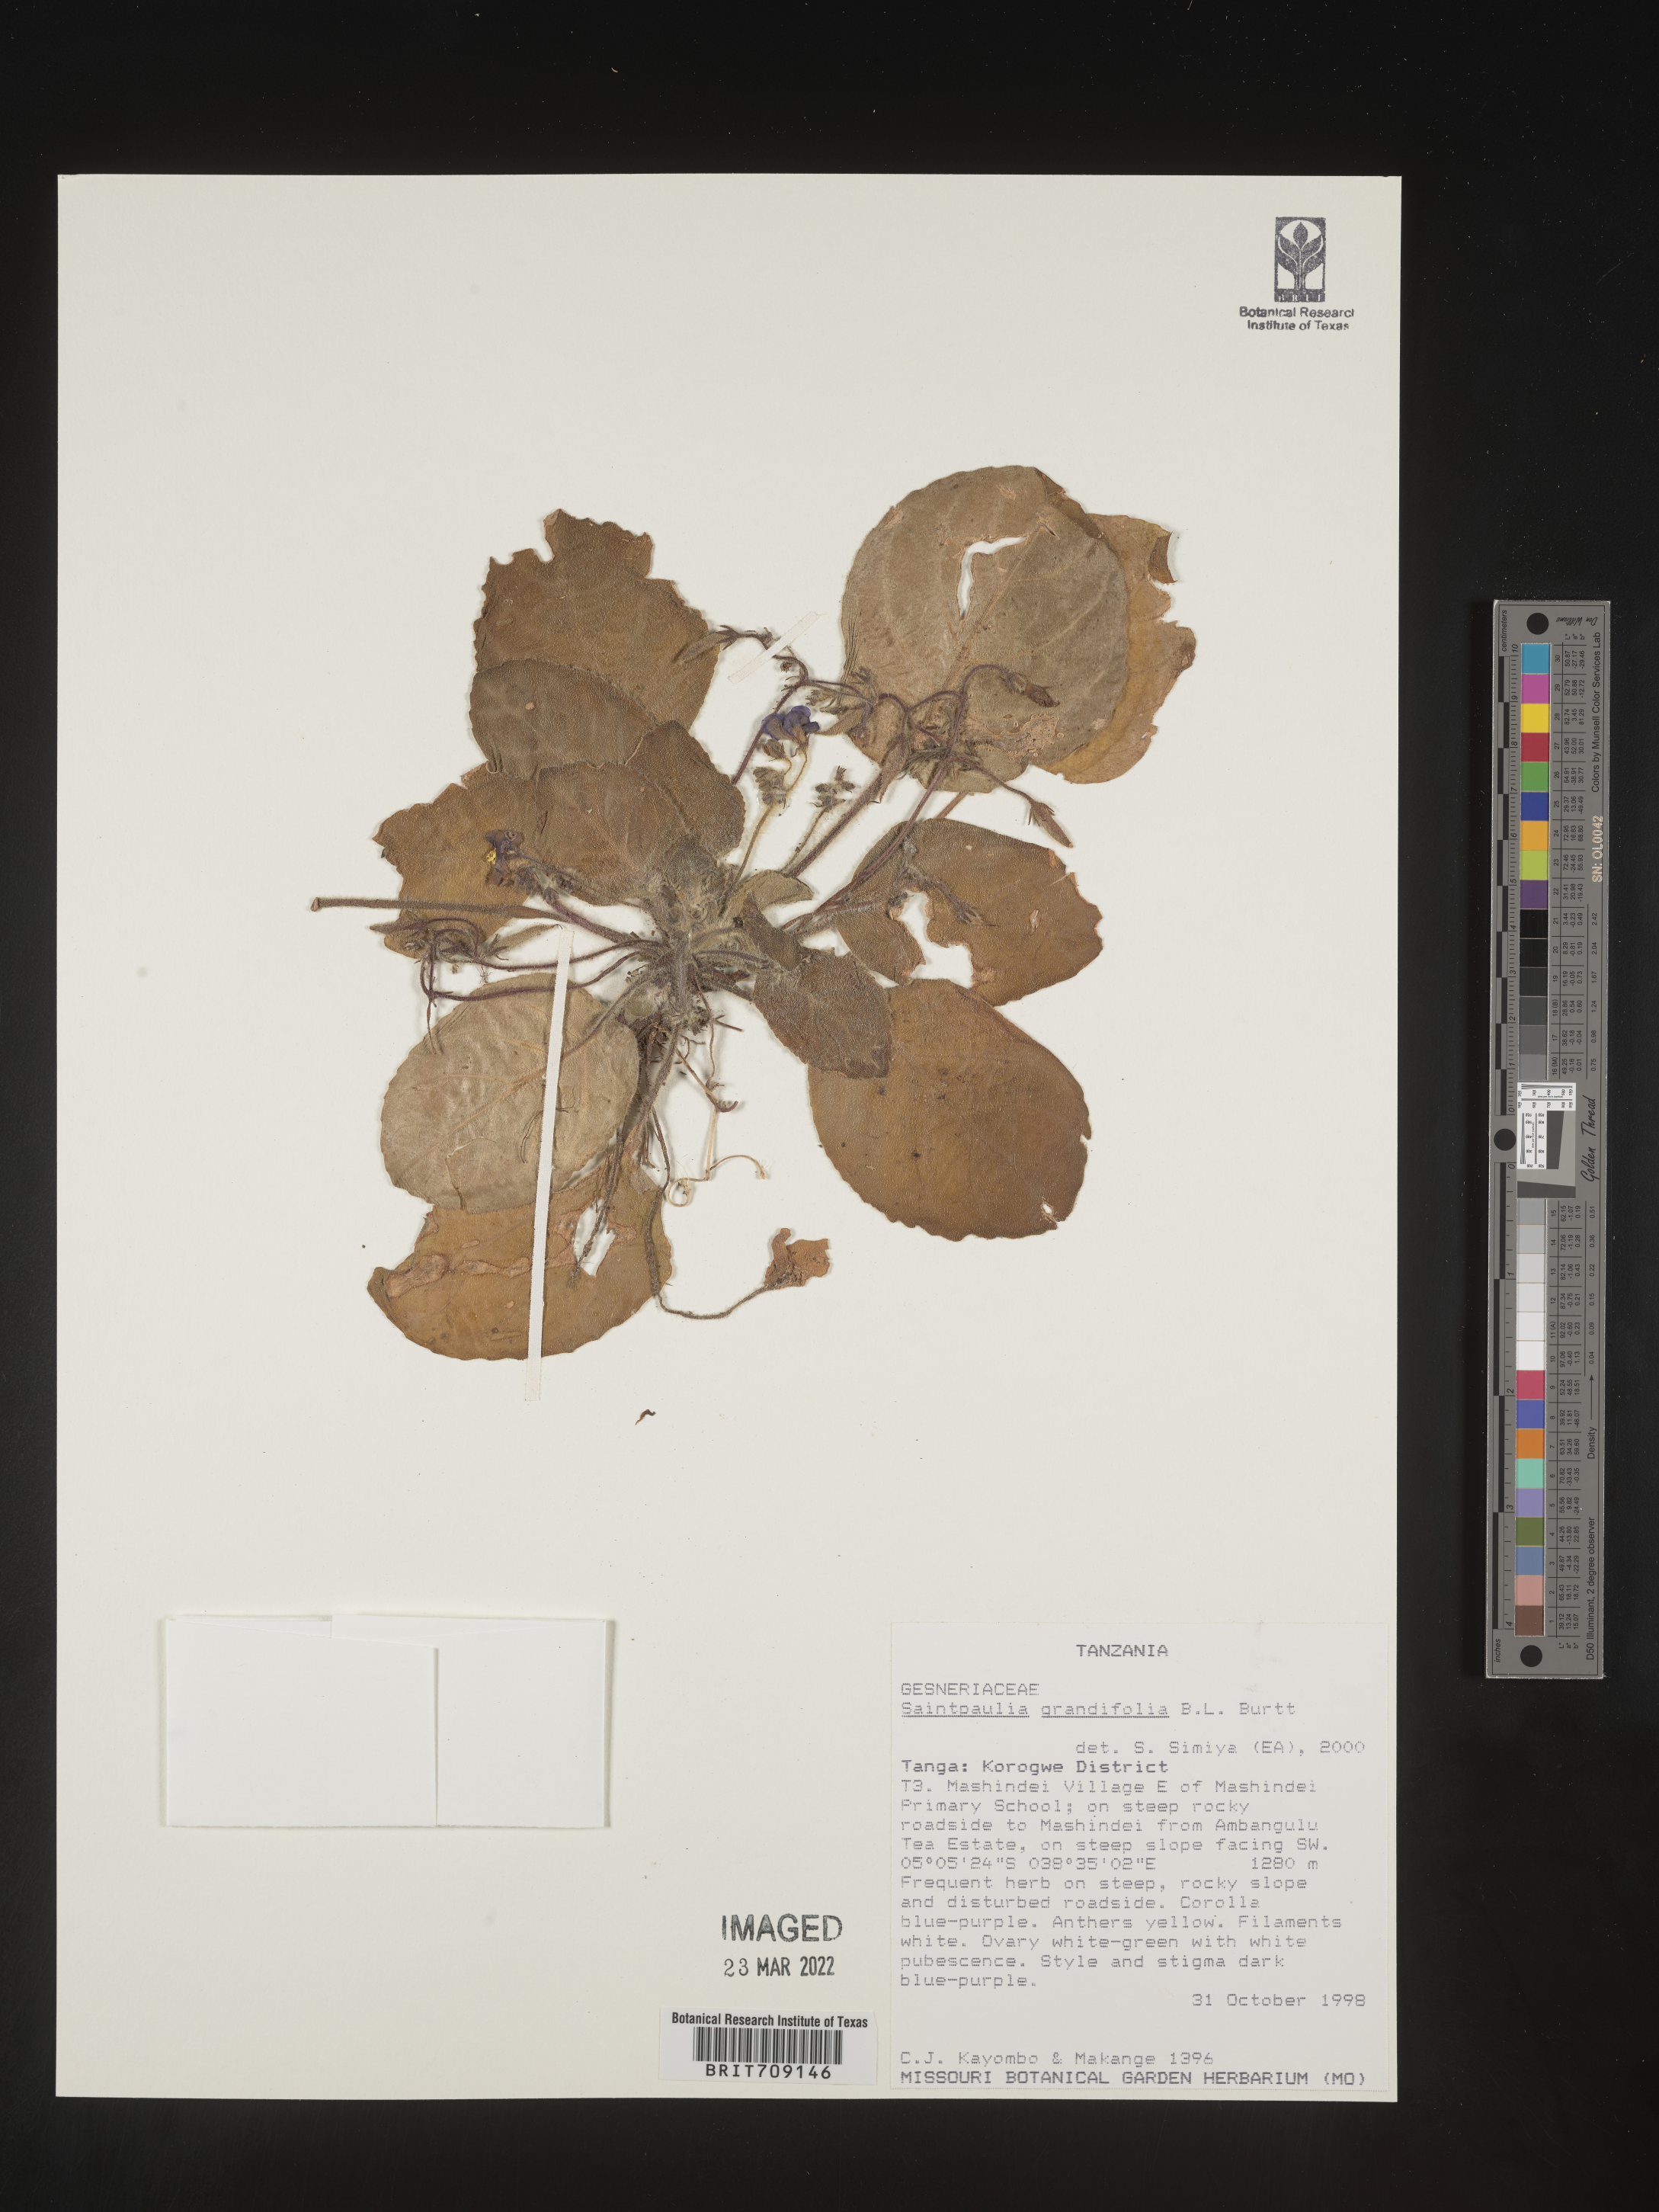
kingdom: Plantae
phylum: Tracheophyta
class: Magnoliopsida
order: Lamiales
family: Gesneriaceae
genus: Streptocarpus
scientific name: Streptocarpus
